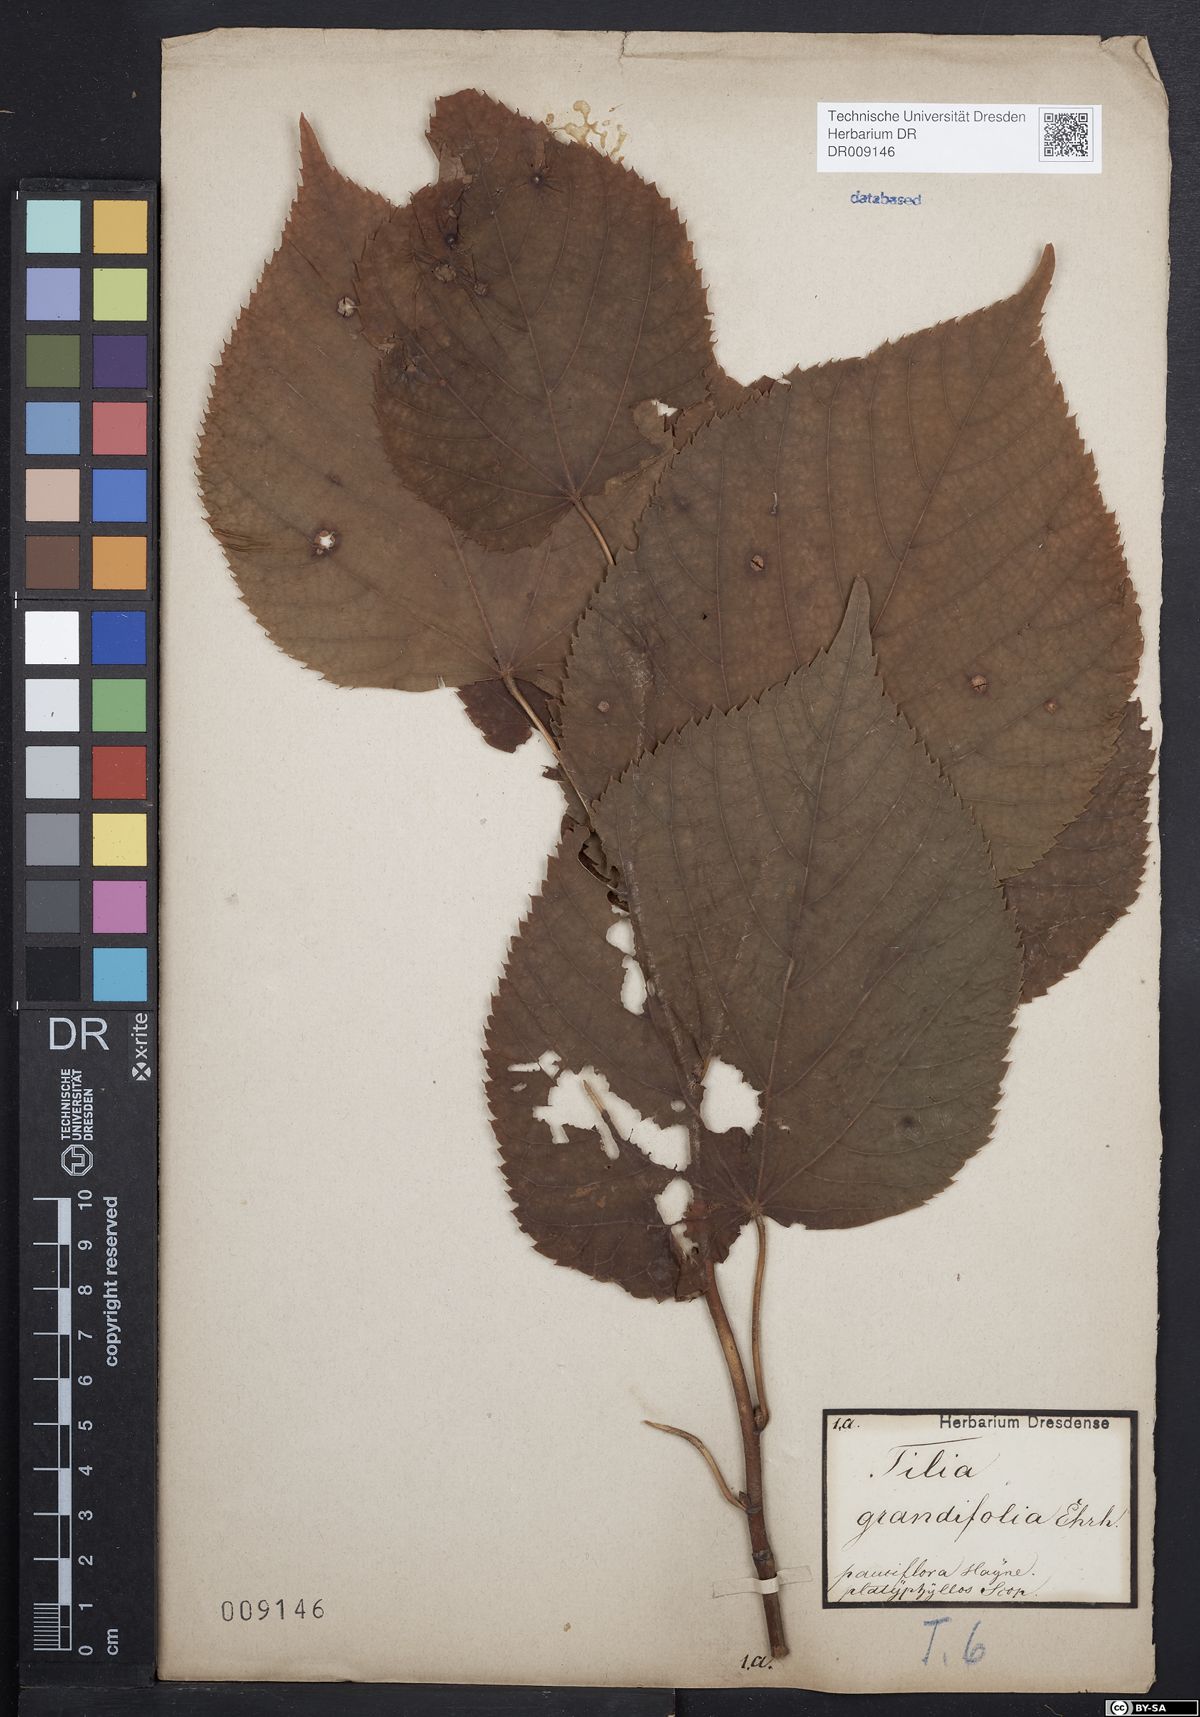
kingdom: Plantae
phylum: Tracheophyta
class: Magnoliopsida
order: Malvales
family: Malvaceae
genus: Tilia
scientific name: Tilia platyphyllos
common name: Large-leaved lime
